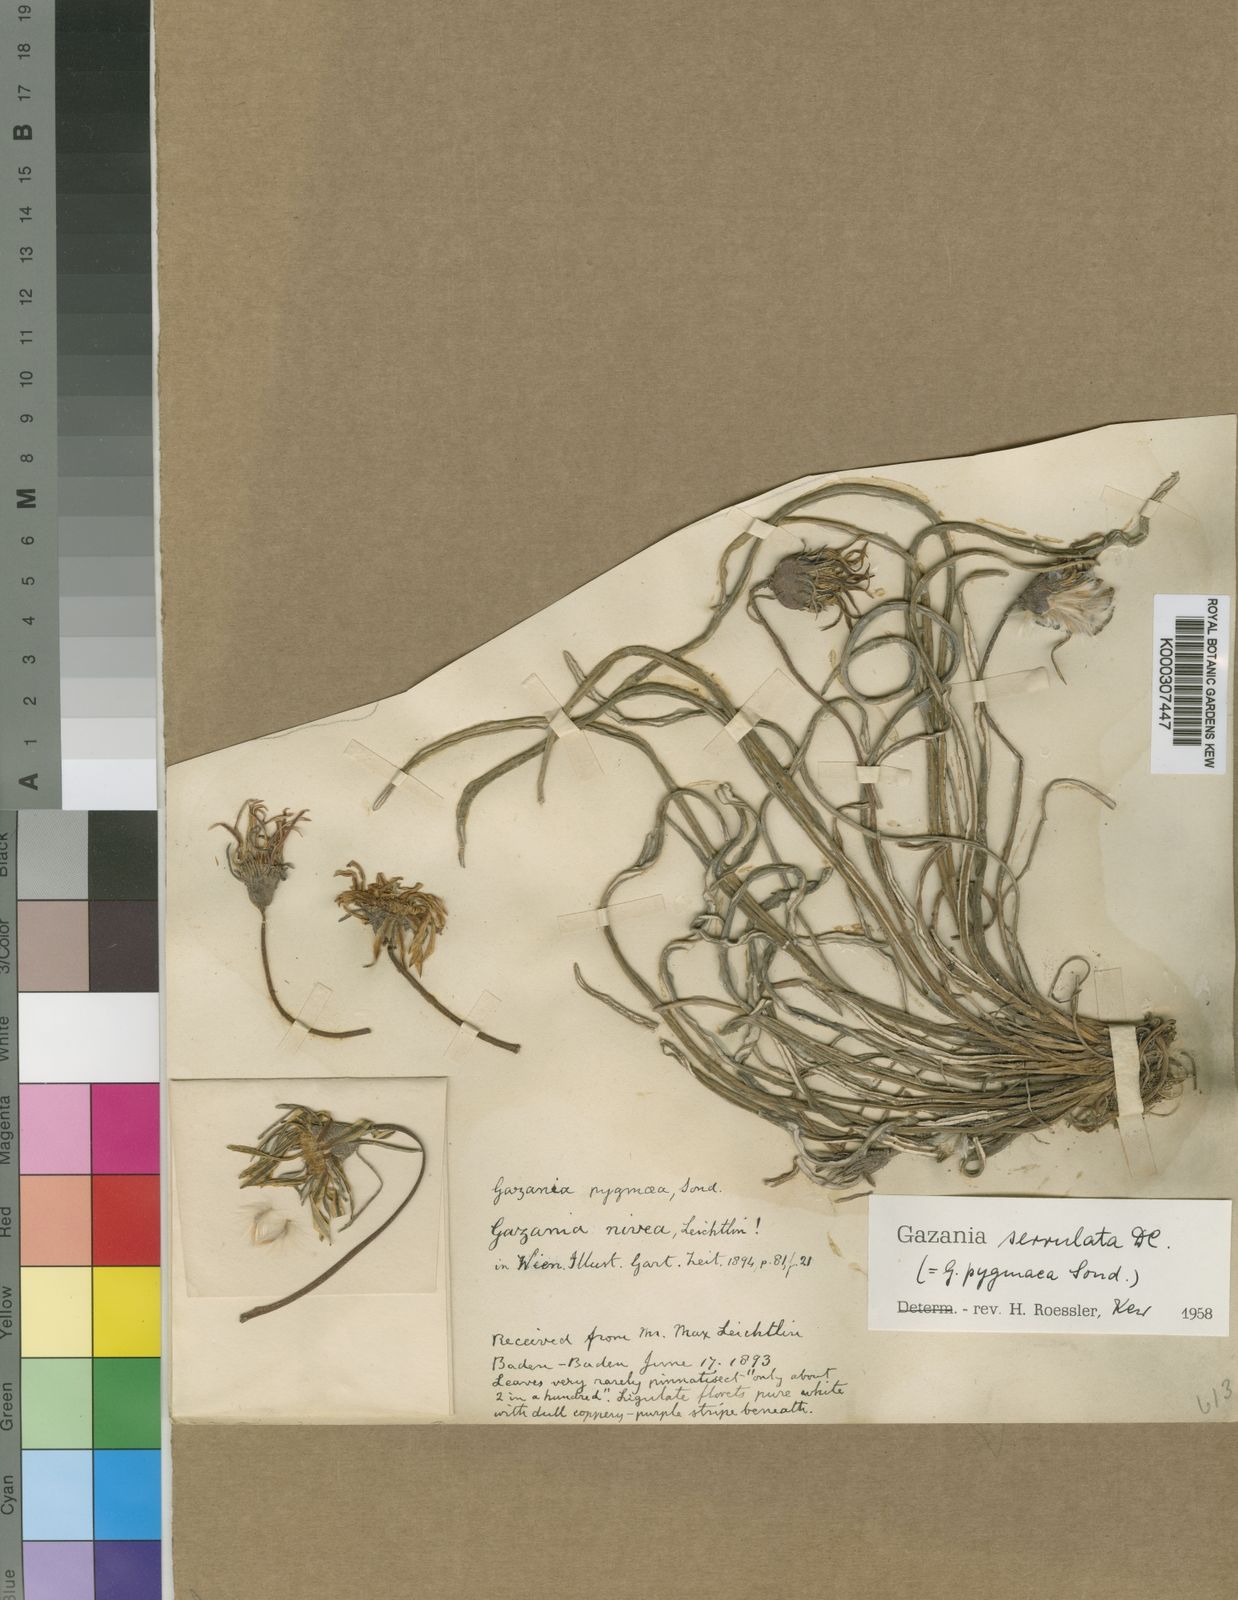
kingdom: Plantae
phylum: Tracheophyta
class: Magnoliopsida
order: Asterales
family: Asteraceae
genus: Gazania
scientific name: Gazania krebsiana
